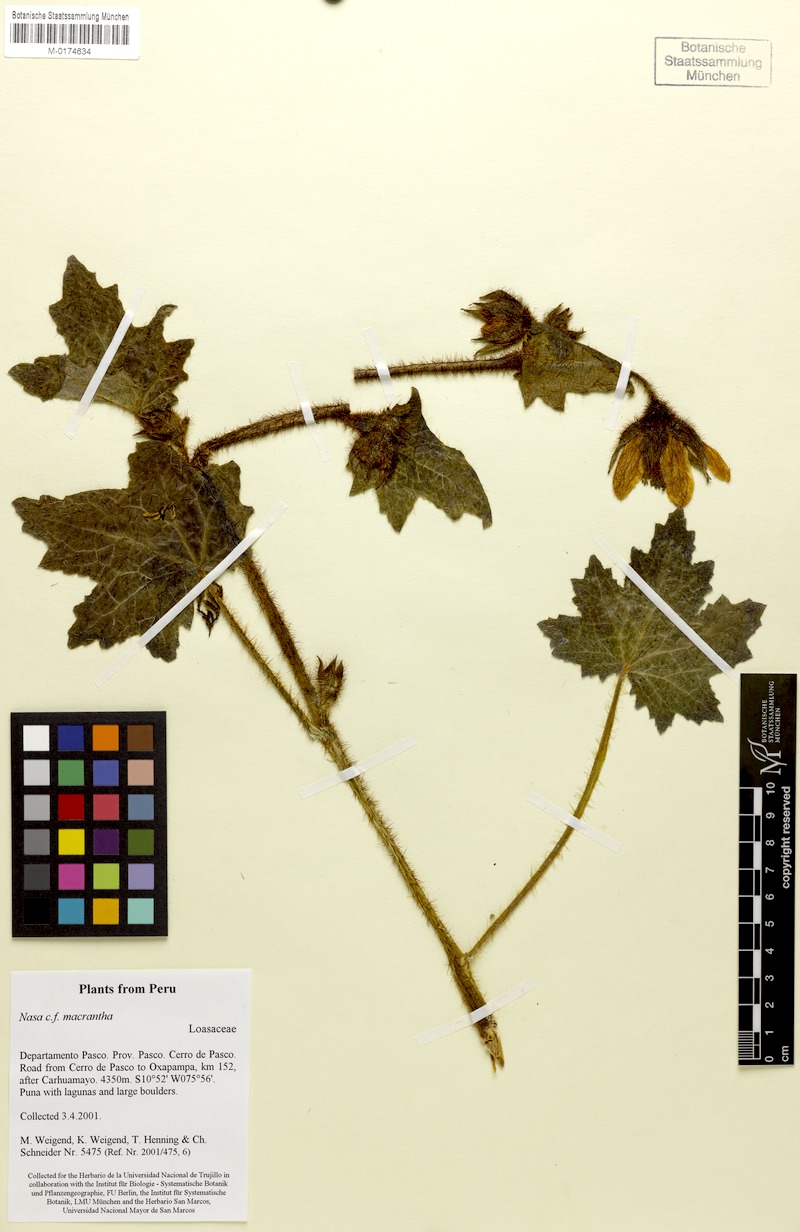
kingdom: Plantae
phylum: Tracheophyta
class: Magnoliopsida
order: Cornales
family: Loasaceae
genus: Nasa
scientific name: Nasa ranunculifolia
